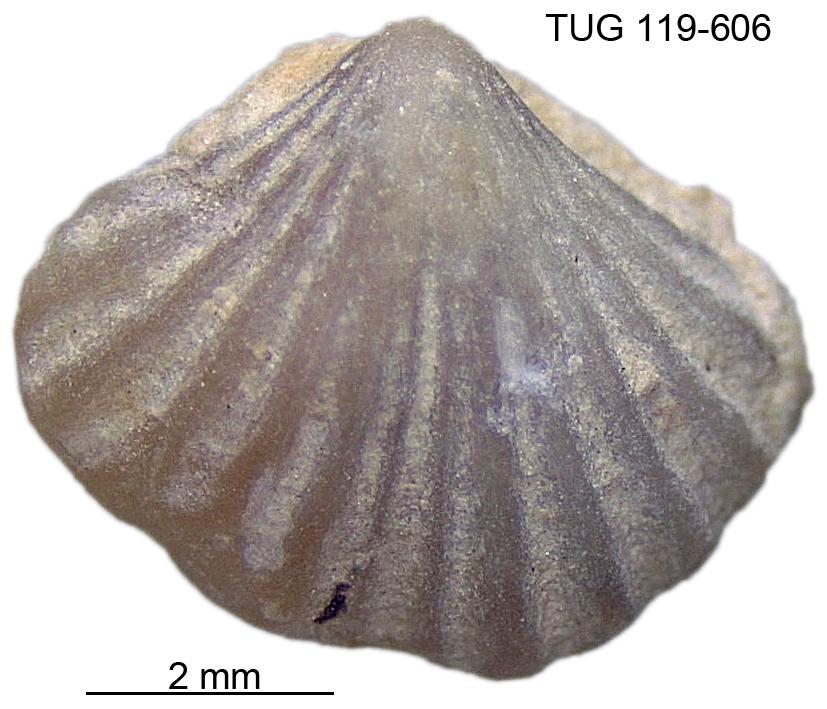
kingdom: Animalia
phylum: Brachiopoda
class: Rhynchonellata
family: Rhynchospirinidae
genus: Homoeospira
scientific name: Homoeospira Terebratula baylei
